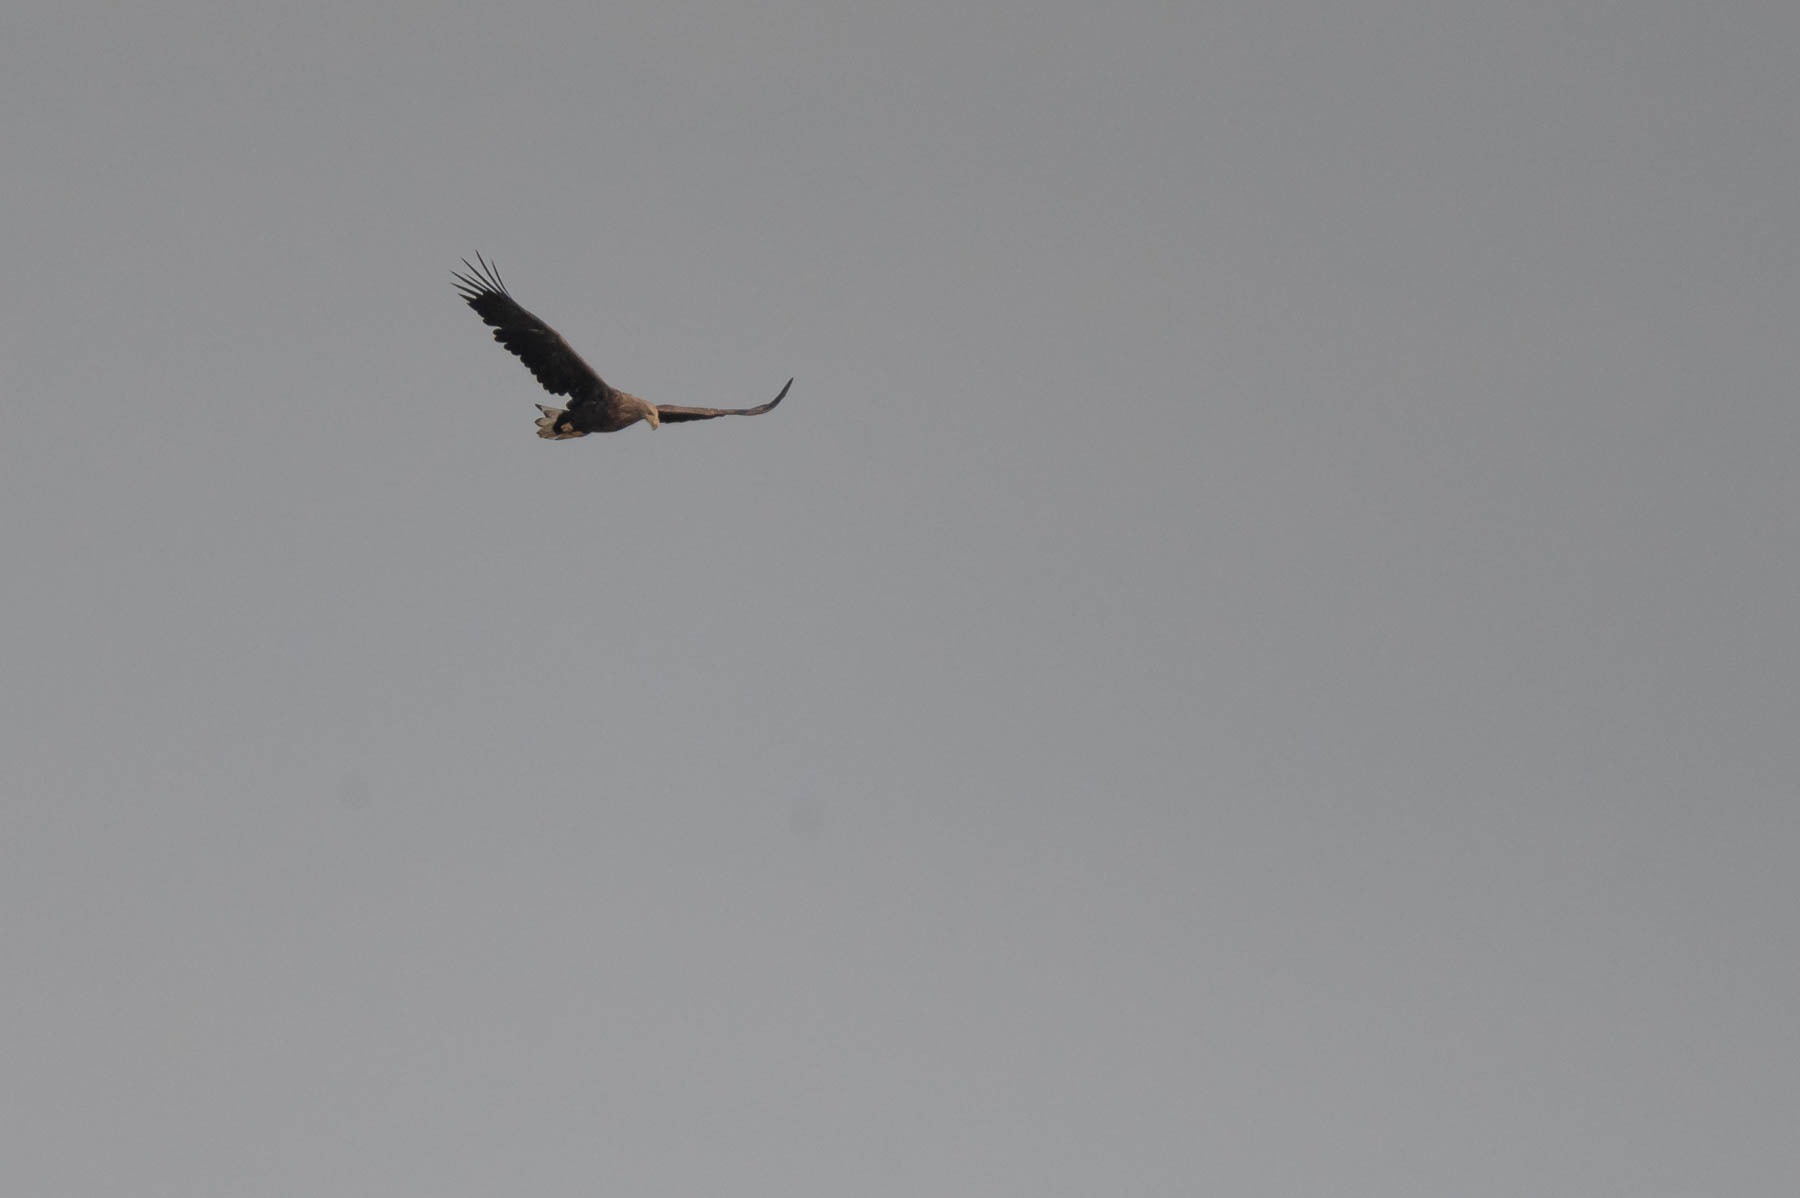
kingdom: Animalia
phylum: Chordata
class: Aves
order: Accipitriformes
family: Accipitridae
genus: Haliaeetus
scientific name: Haliaeetus albicilla
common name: Havørn
